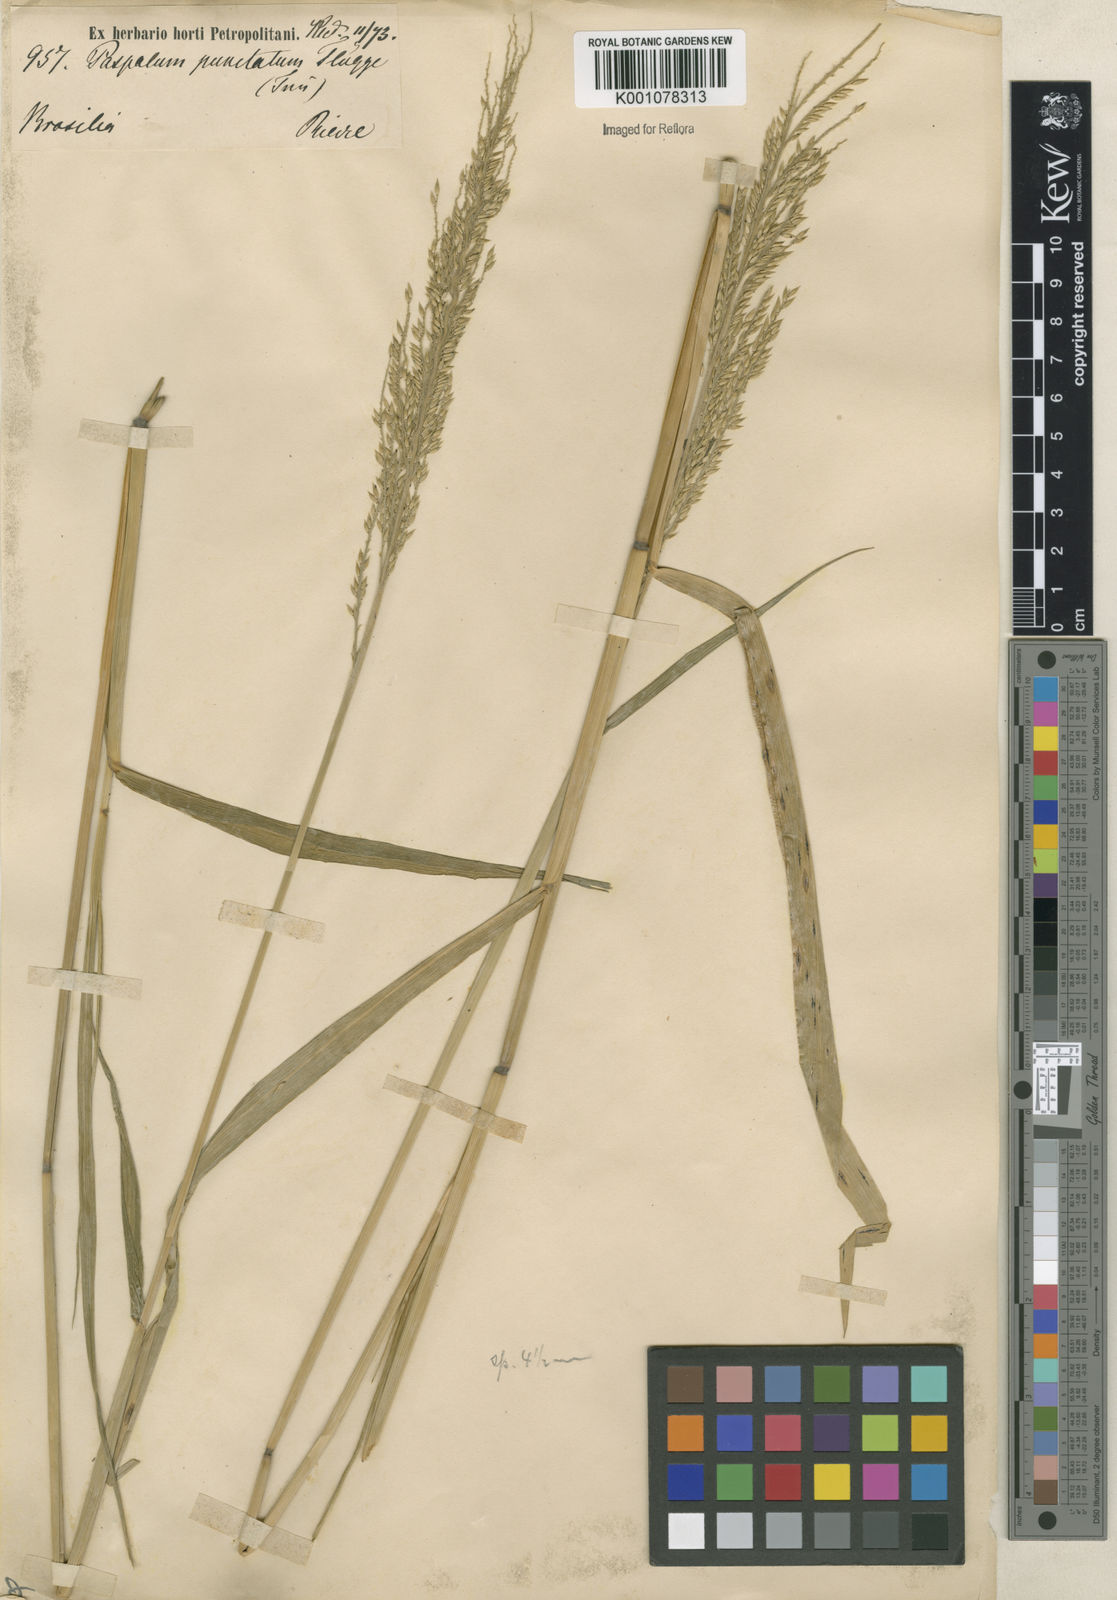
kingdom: Plantae
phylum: Tracheophyta
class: Liliopsida
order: Poales
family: Poaceae
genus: Eriochloa
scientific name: Eriochloa punctata
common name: Louisiana cupgrass
